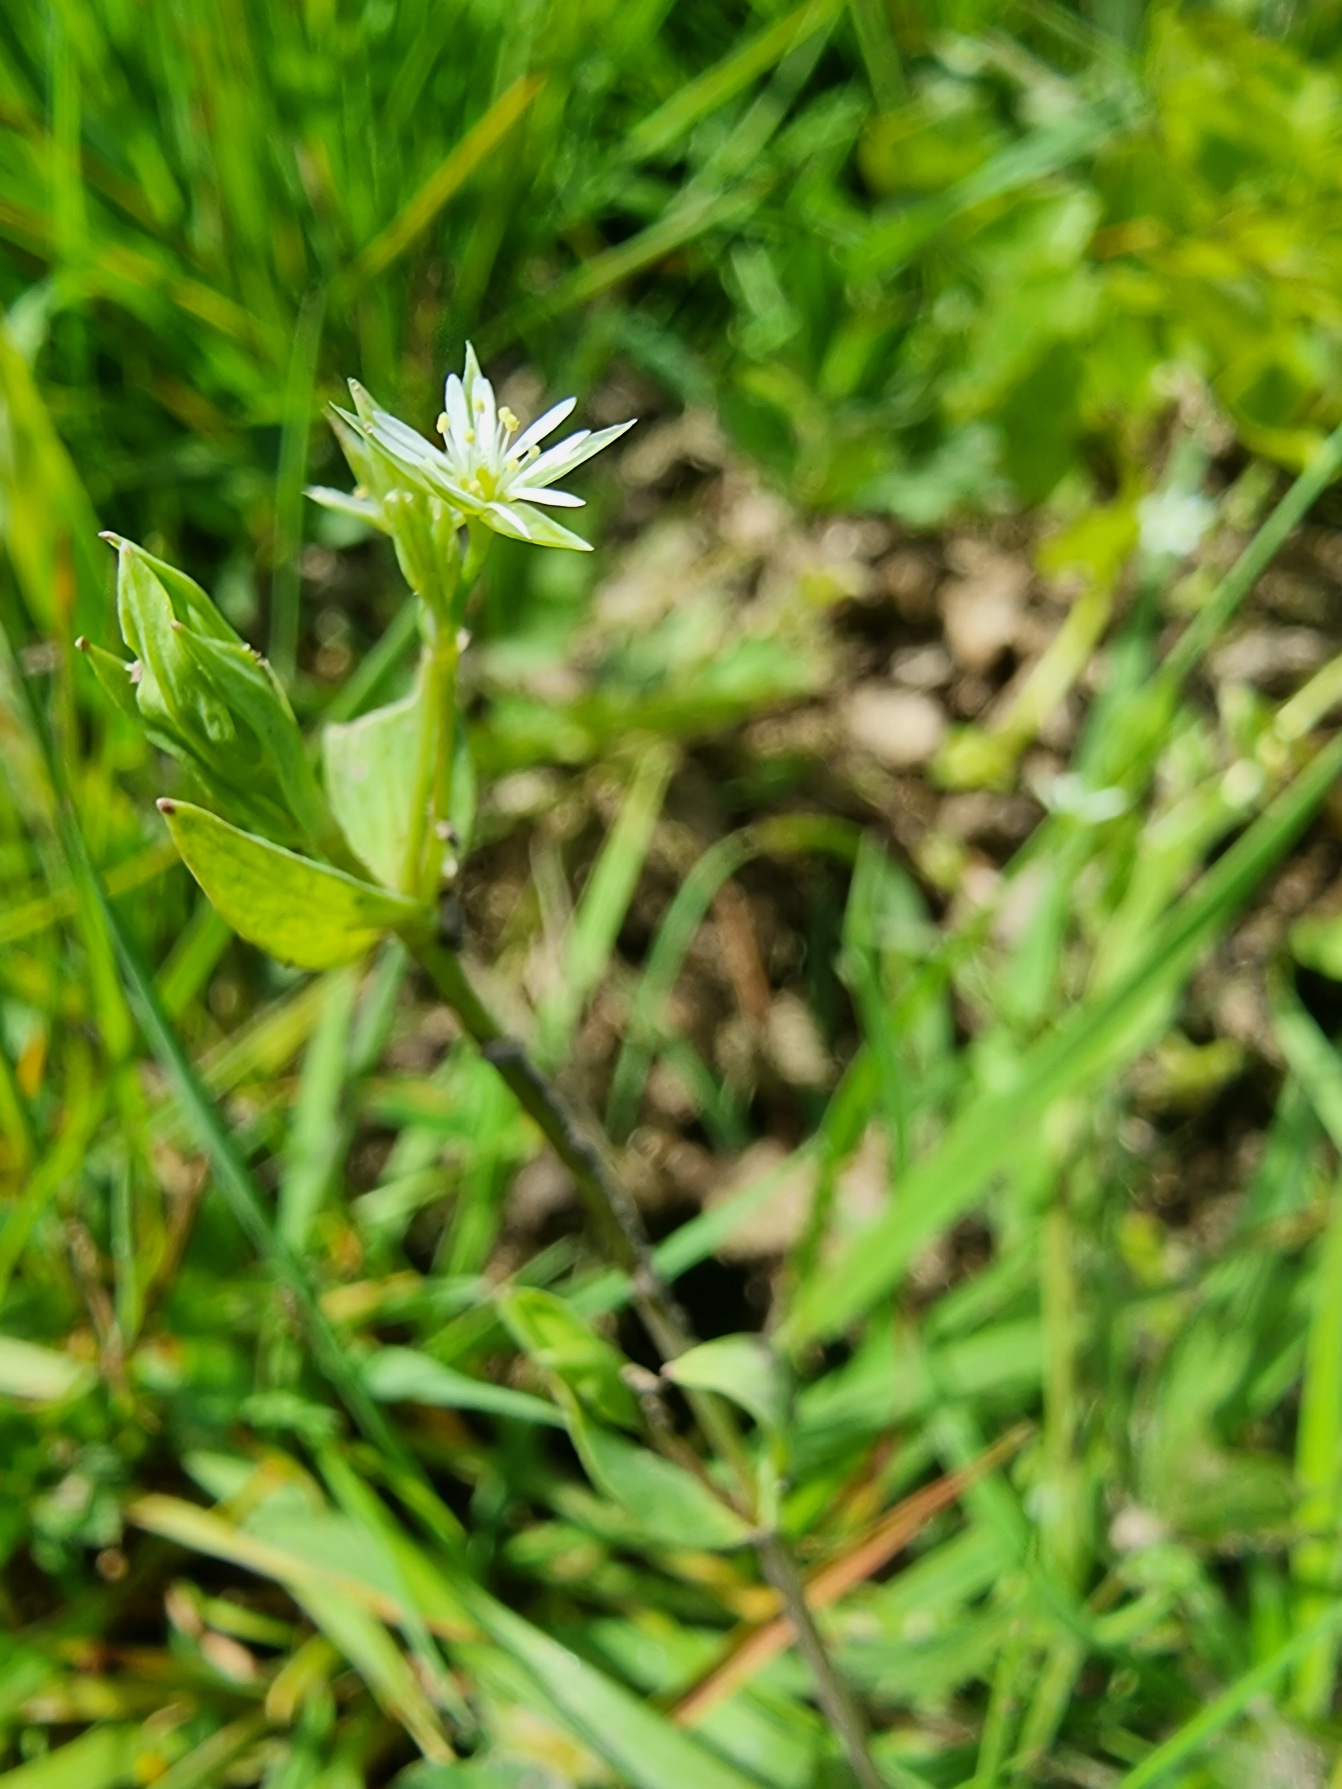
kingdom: Plantae
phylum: Tracheophyta
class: Magnoliopsida
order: Caryophyllales
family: Caryophyllaceae
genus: Stellaria
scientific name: Stellaria alsine
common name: Sump-fladstjerne
